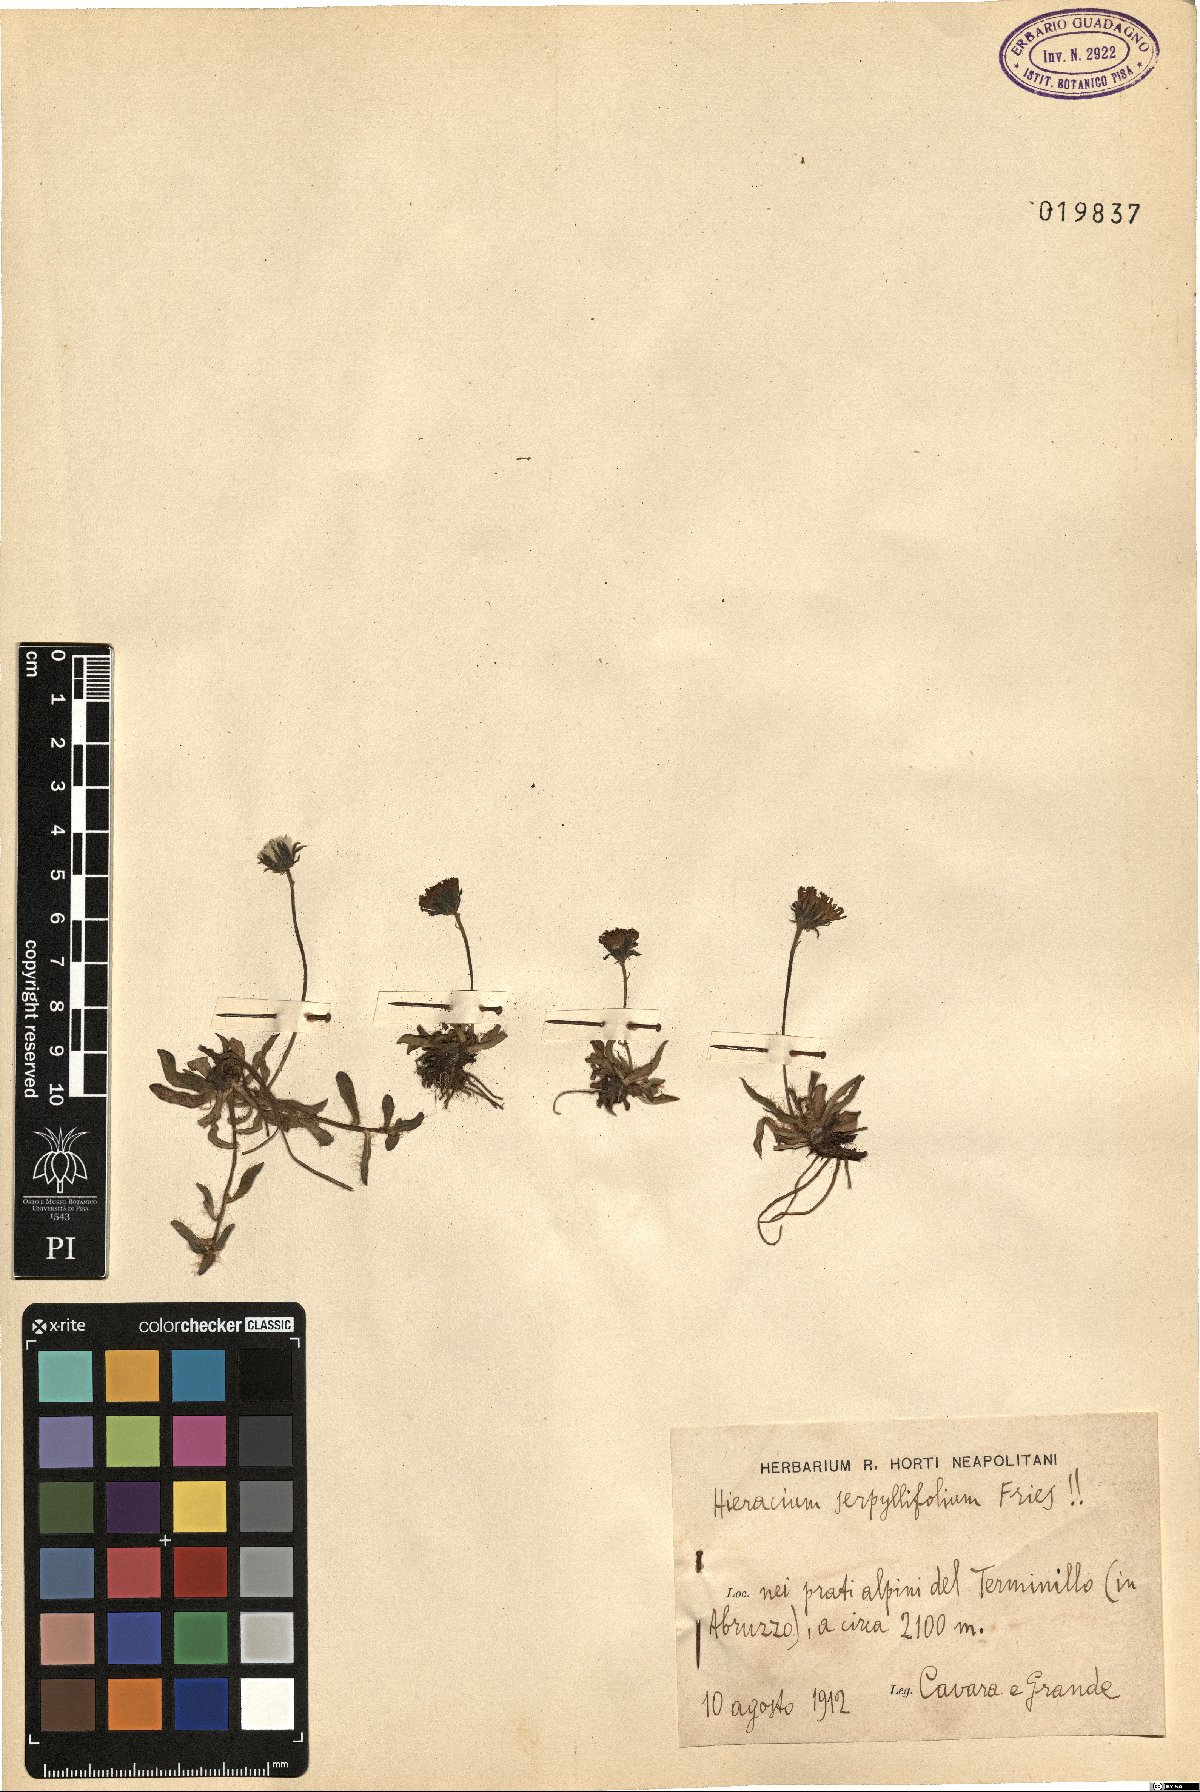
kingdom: Plantae
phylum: Tracheophyta
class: Magnoliopsida
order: Asterales
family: Asteraceae
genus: Pilosella
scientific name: Pilosella lactucella
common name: Glaucous fox-and-cubs
